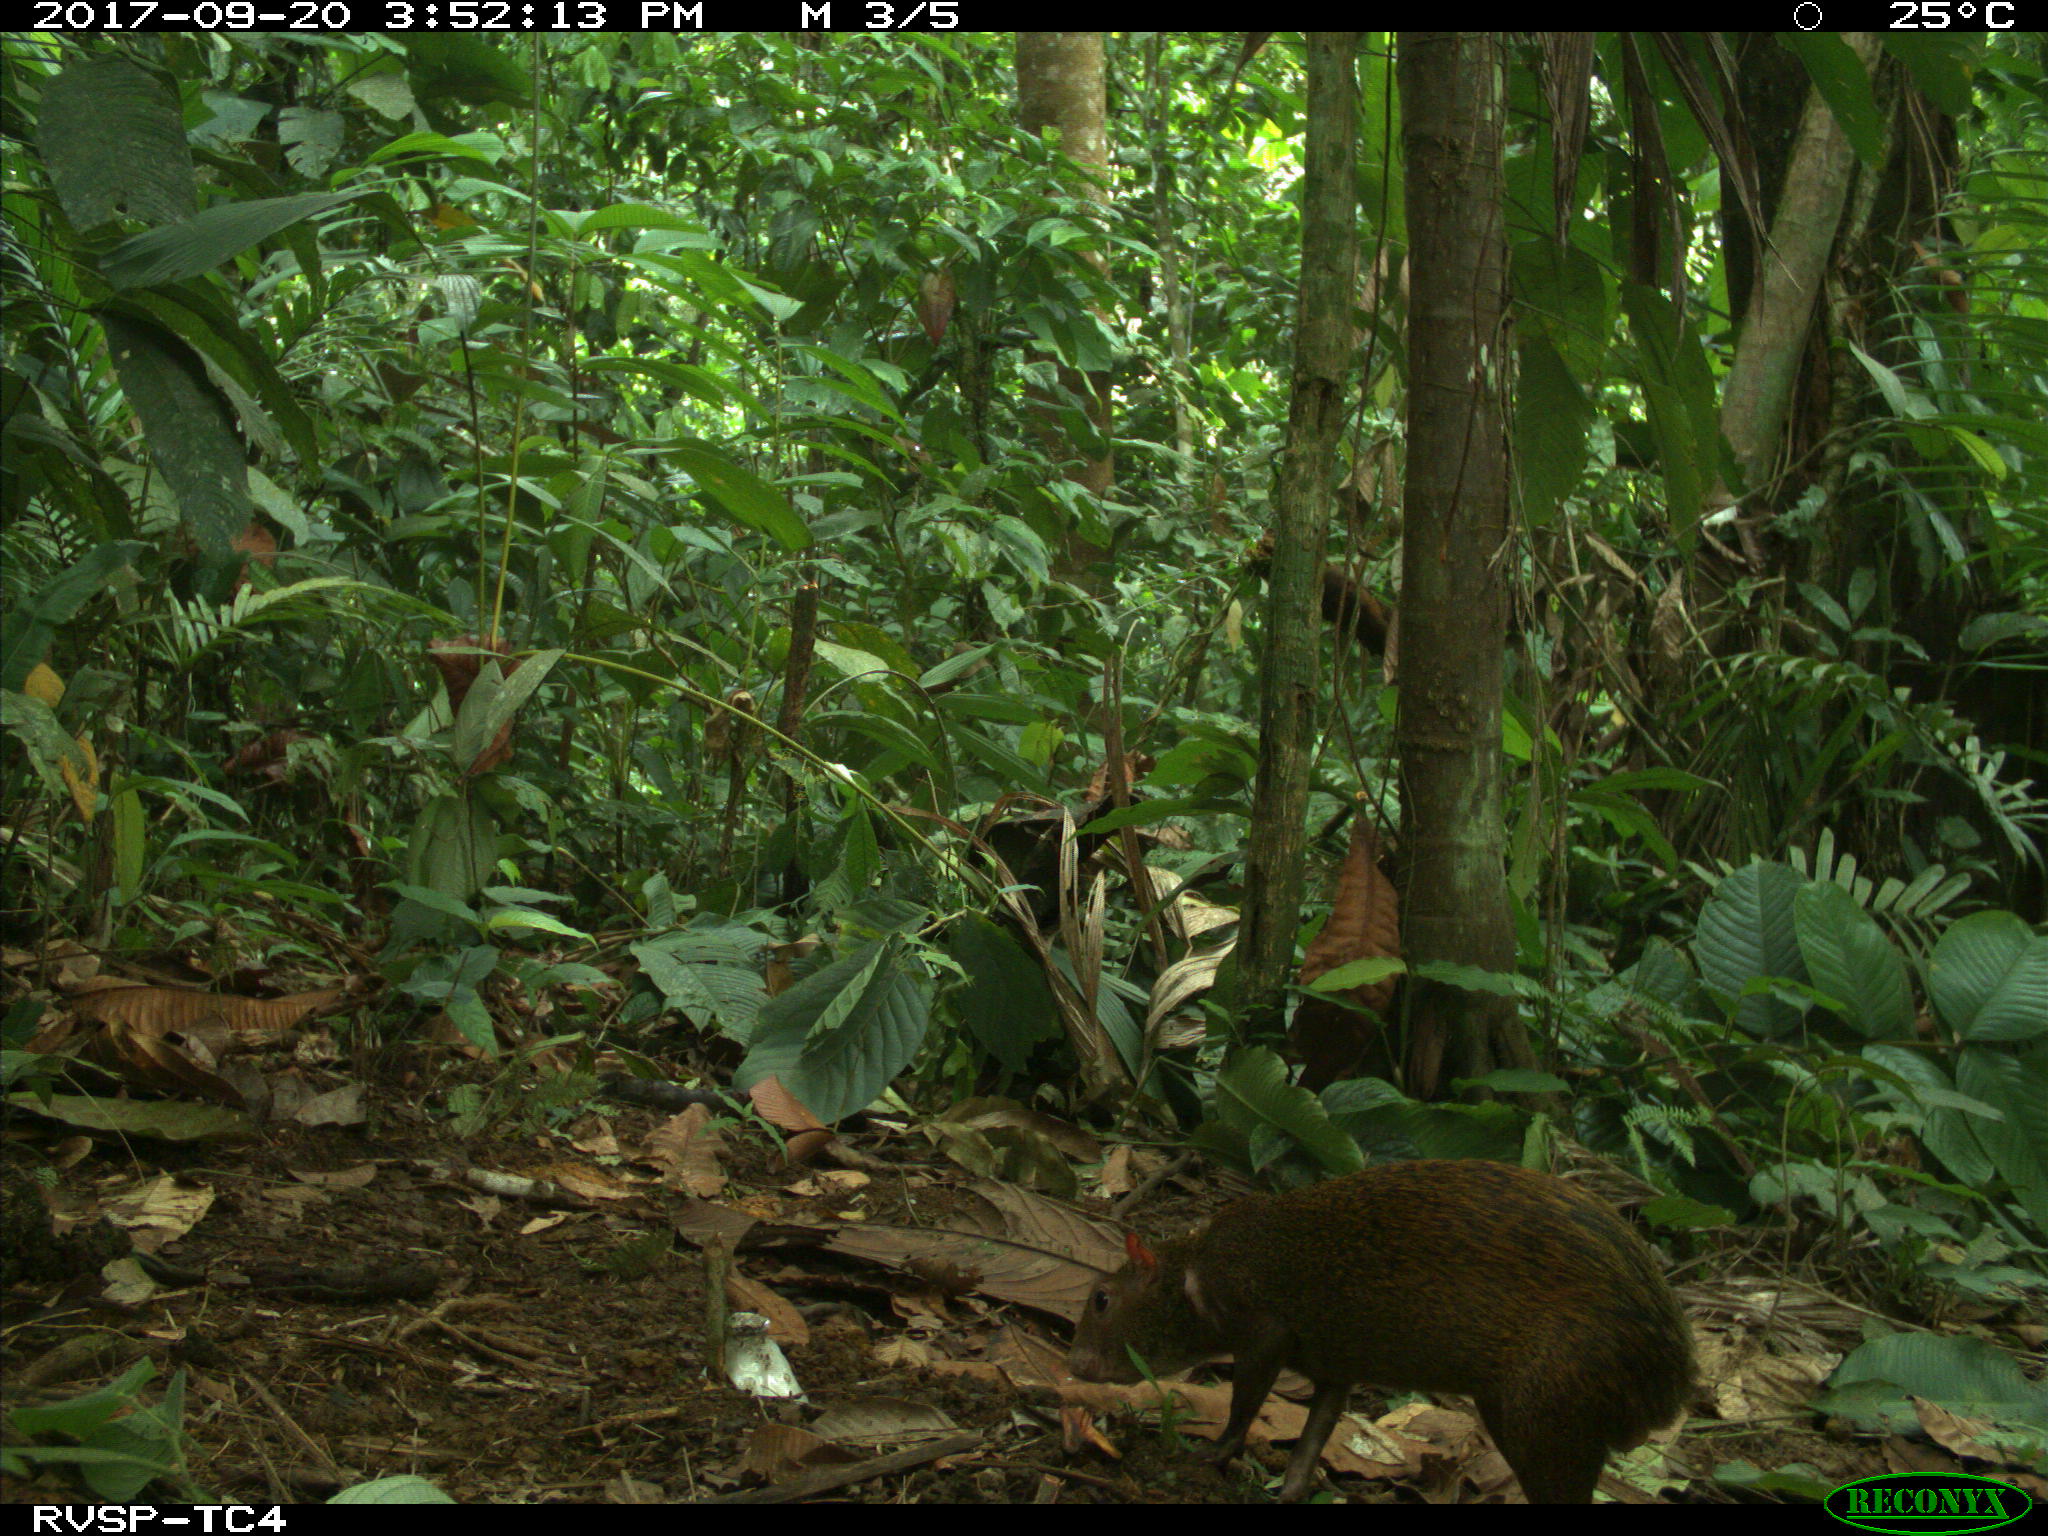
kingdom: Animalia
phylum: Chordata
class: Mammalia
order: Rodentia
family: Dasyproctidae
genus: Dasyprocta
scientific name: Dasyprocta punctata
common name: Central american agouti
